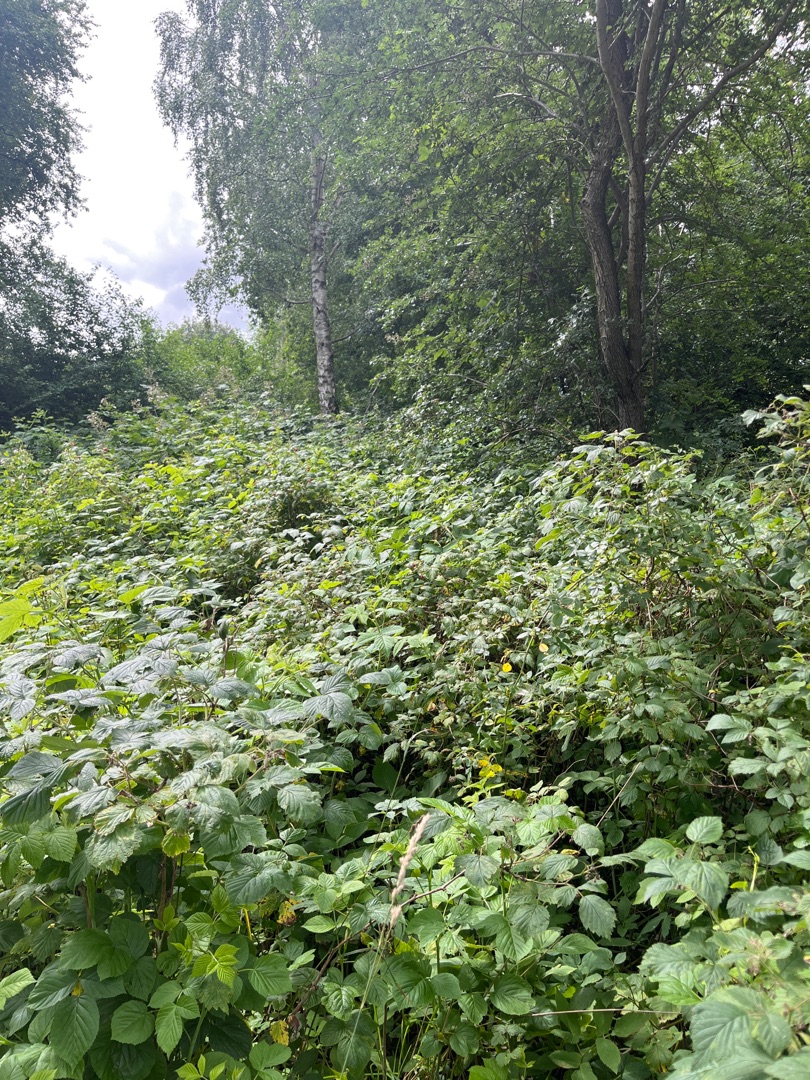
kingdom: Plantae
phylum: Tracheophyta
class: Magnoliopsida
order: Rosales
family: Rosaceae
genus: Rubus
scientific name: Rubus idaeus
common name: Hindbær
